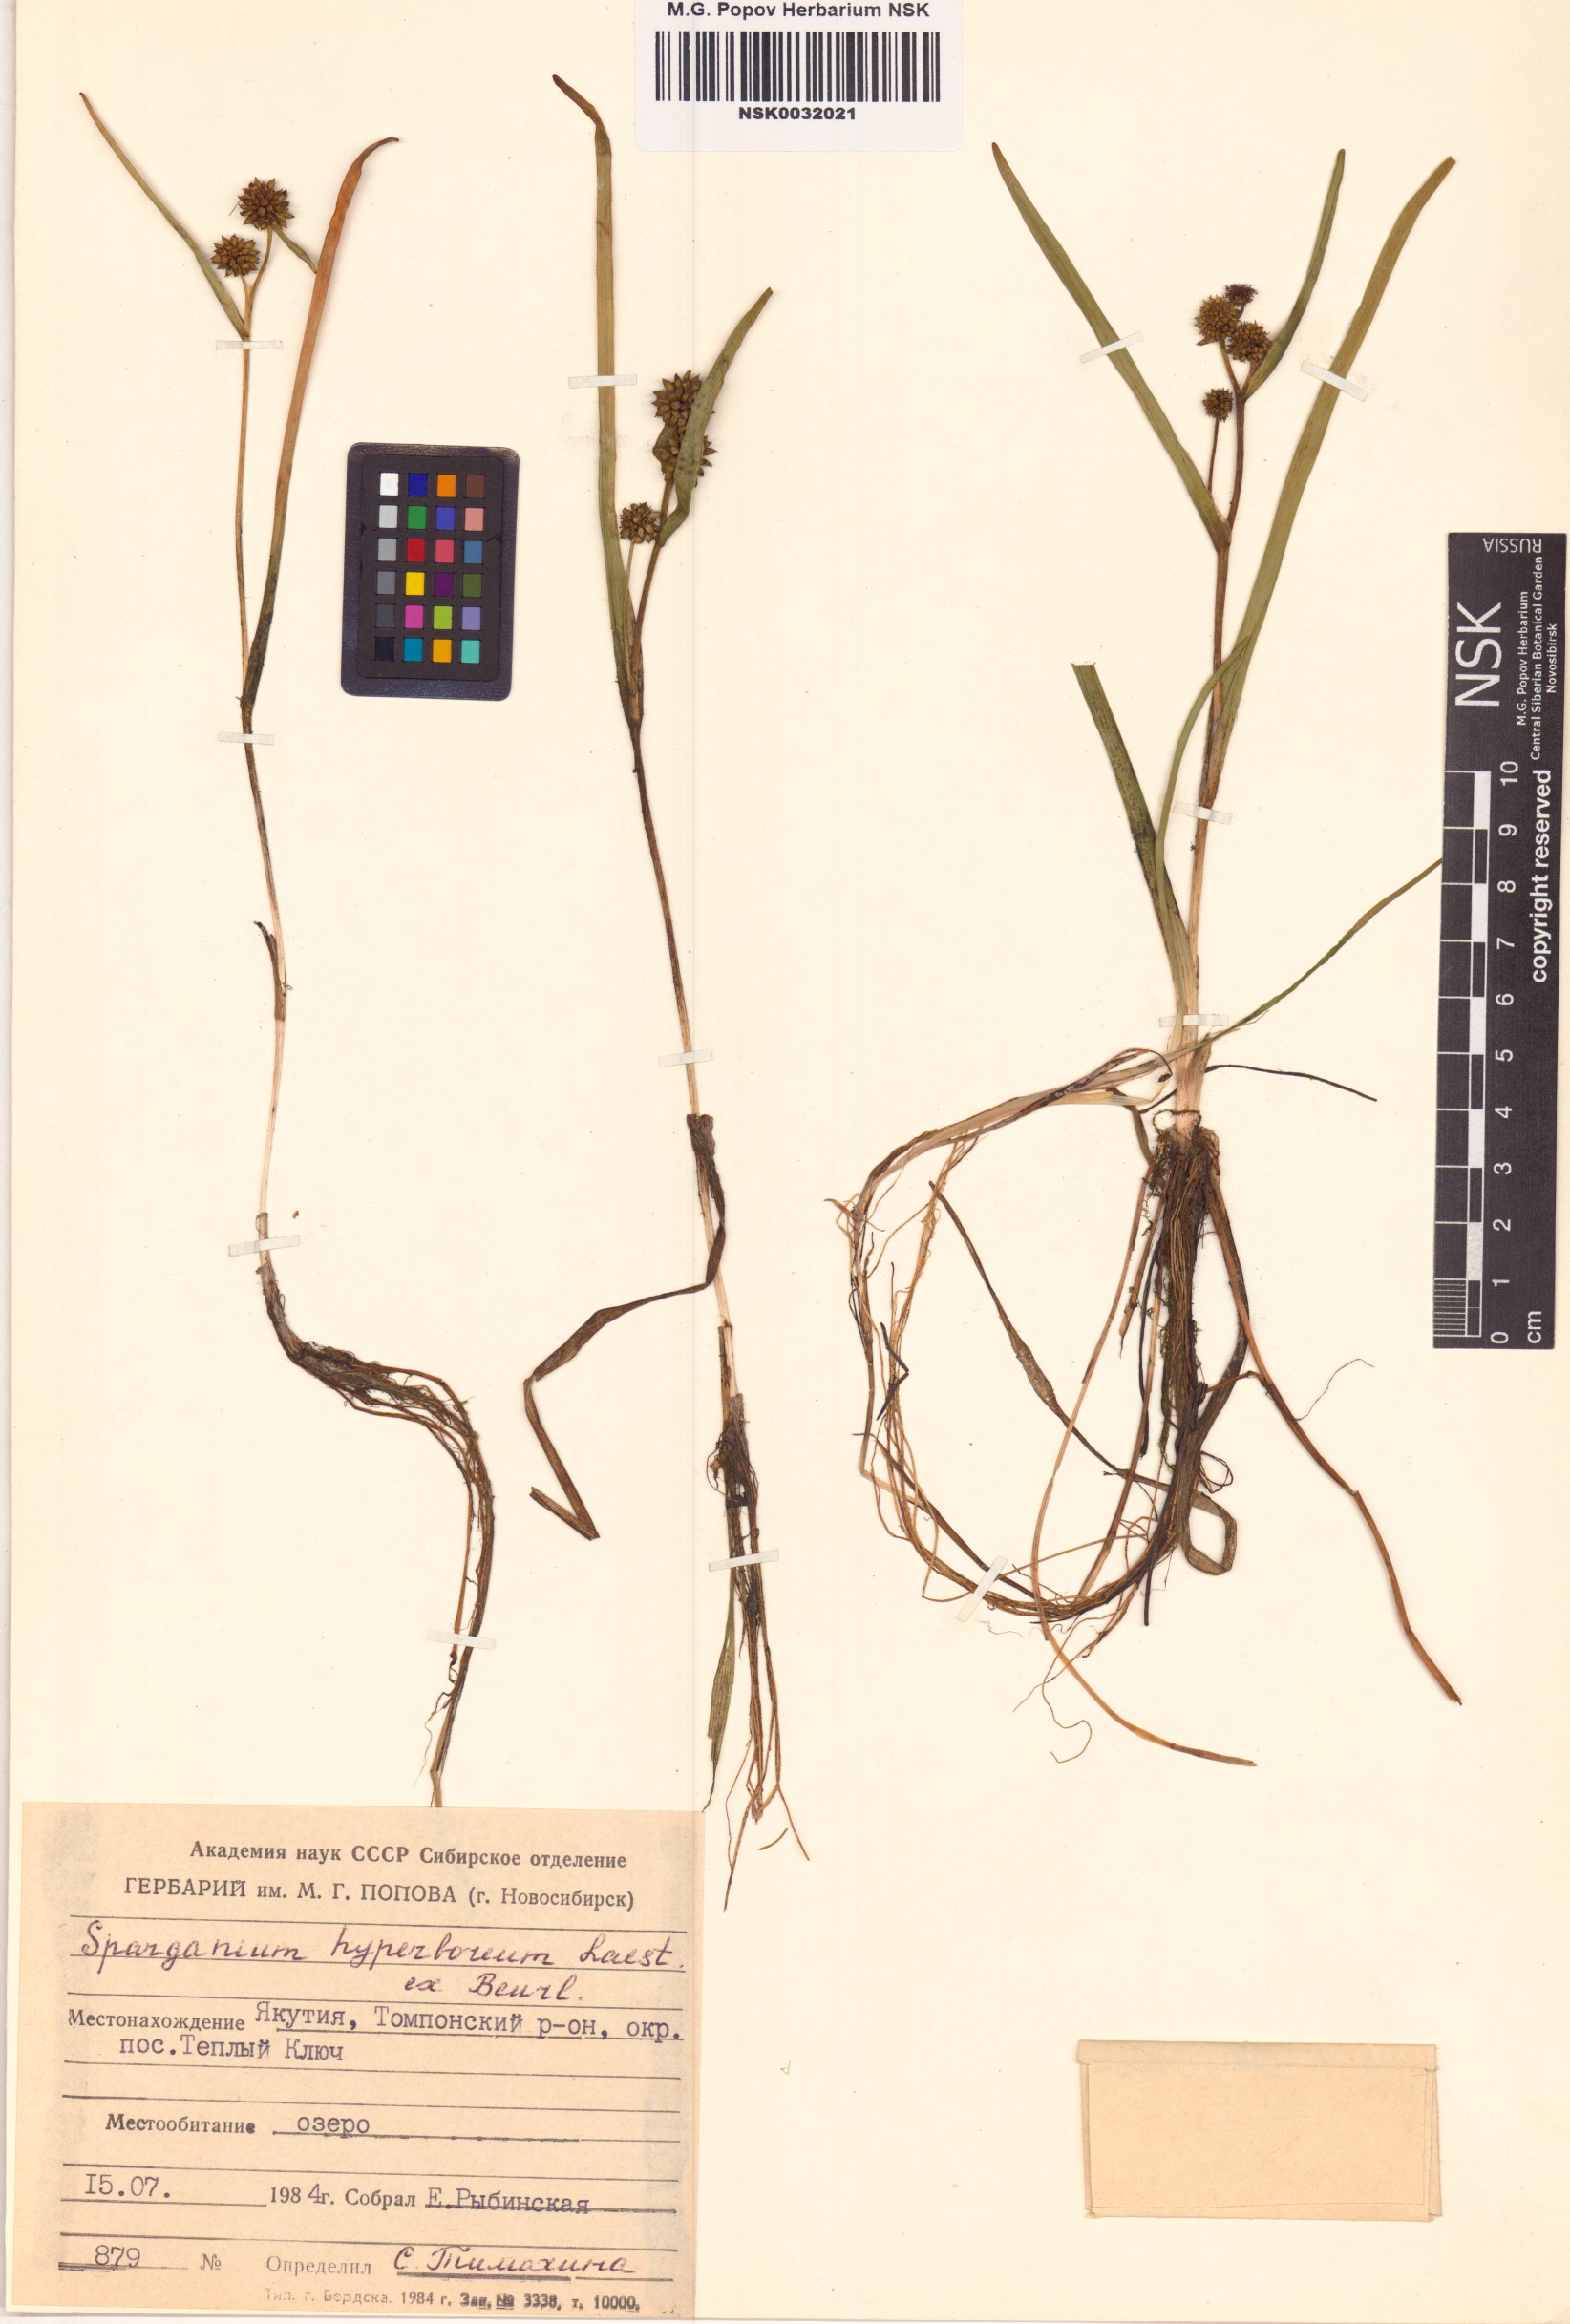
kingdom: Plantae
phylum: Tracheophyta
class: Liliopsida
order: Poales
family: Typhaceae
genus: Sparganium
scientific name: Sparganium hyperboreum
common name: Arctic burreed
